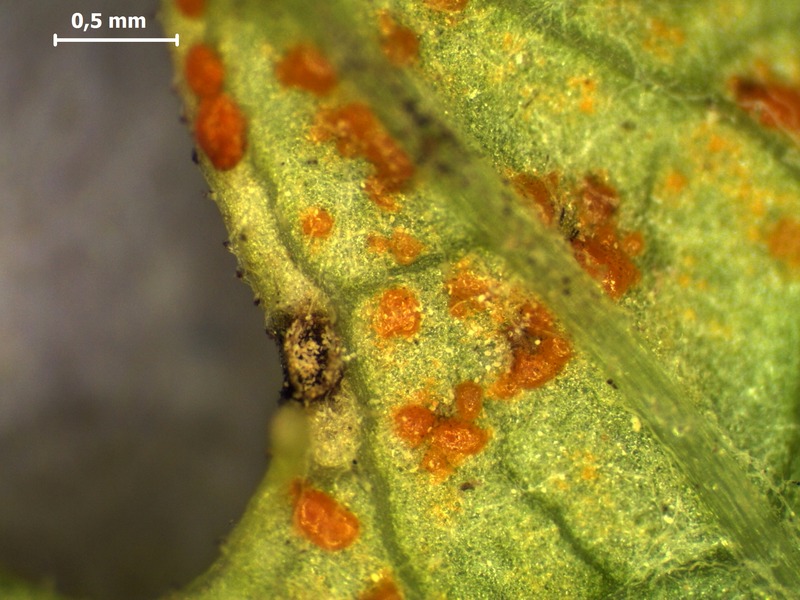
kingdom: Fungi
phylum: Basidiomycota
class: Pucciniomycetes
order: Pucciniales
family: Coleosporiaceae
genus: Coleosporium
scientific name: Coleosporium tussilaginis
